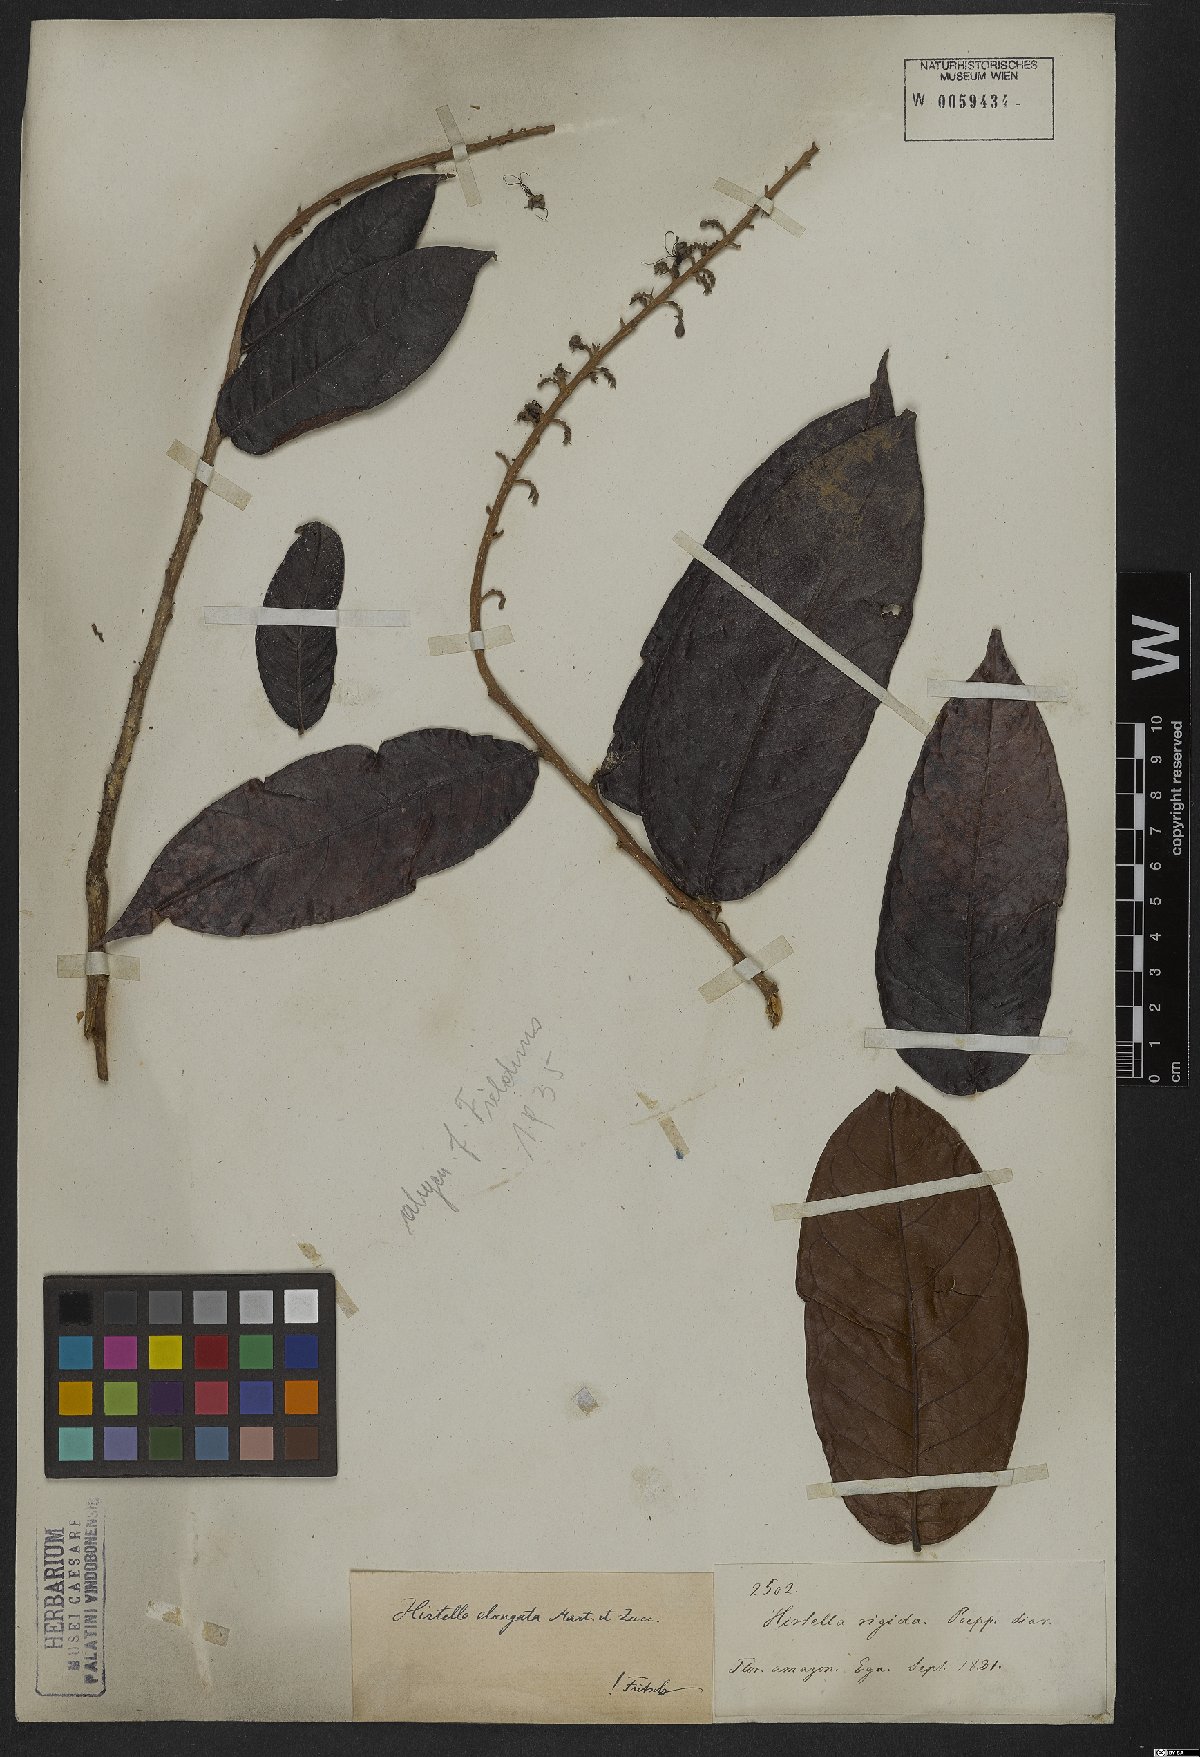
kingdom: Plantae
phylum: Tracheophyta
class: Magnoliopsida
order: Malpighiales
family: Chrysobalanaceae
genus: Hirtella
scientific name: Hirtella elongata
